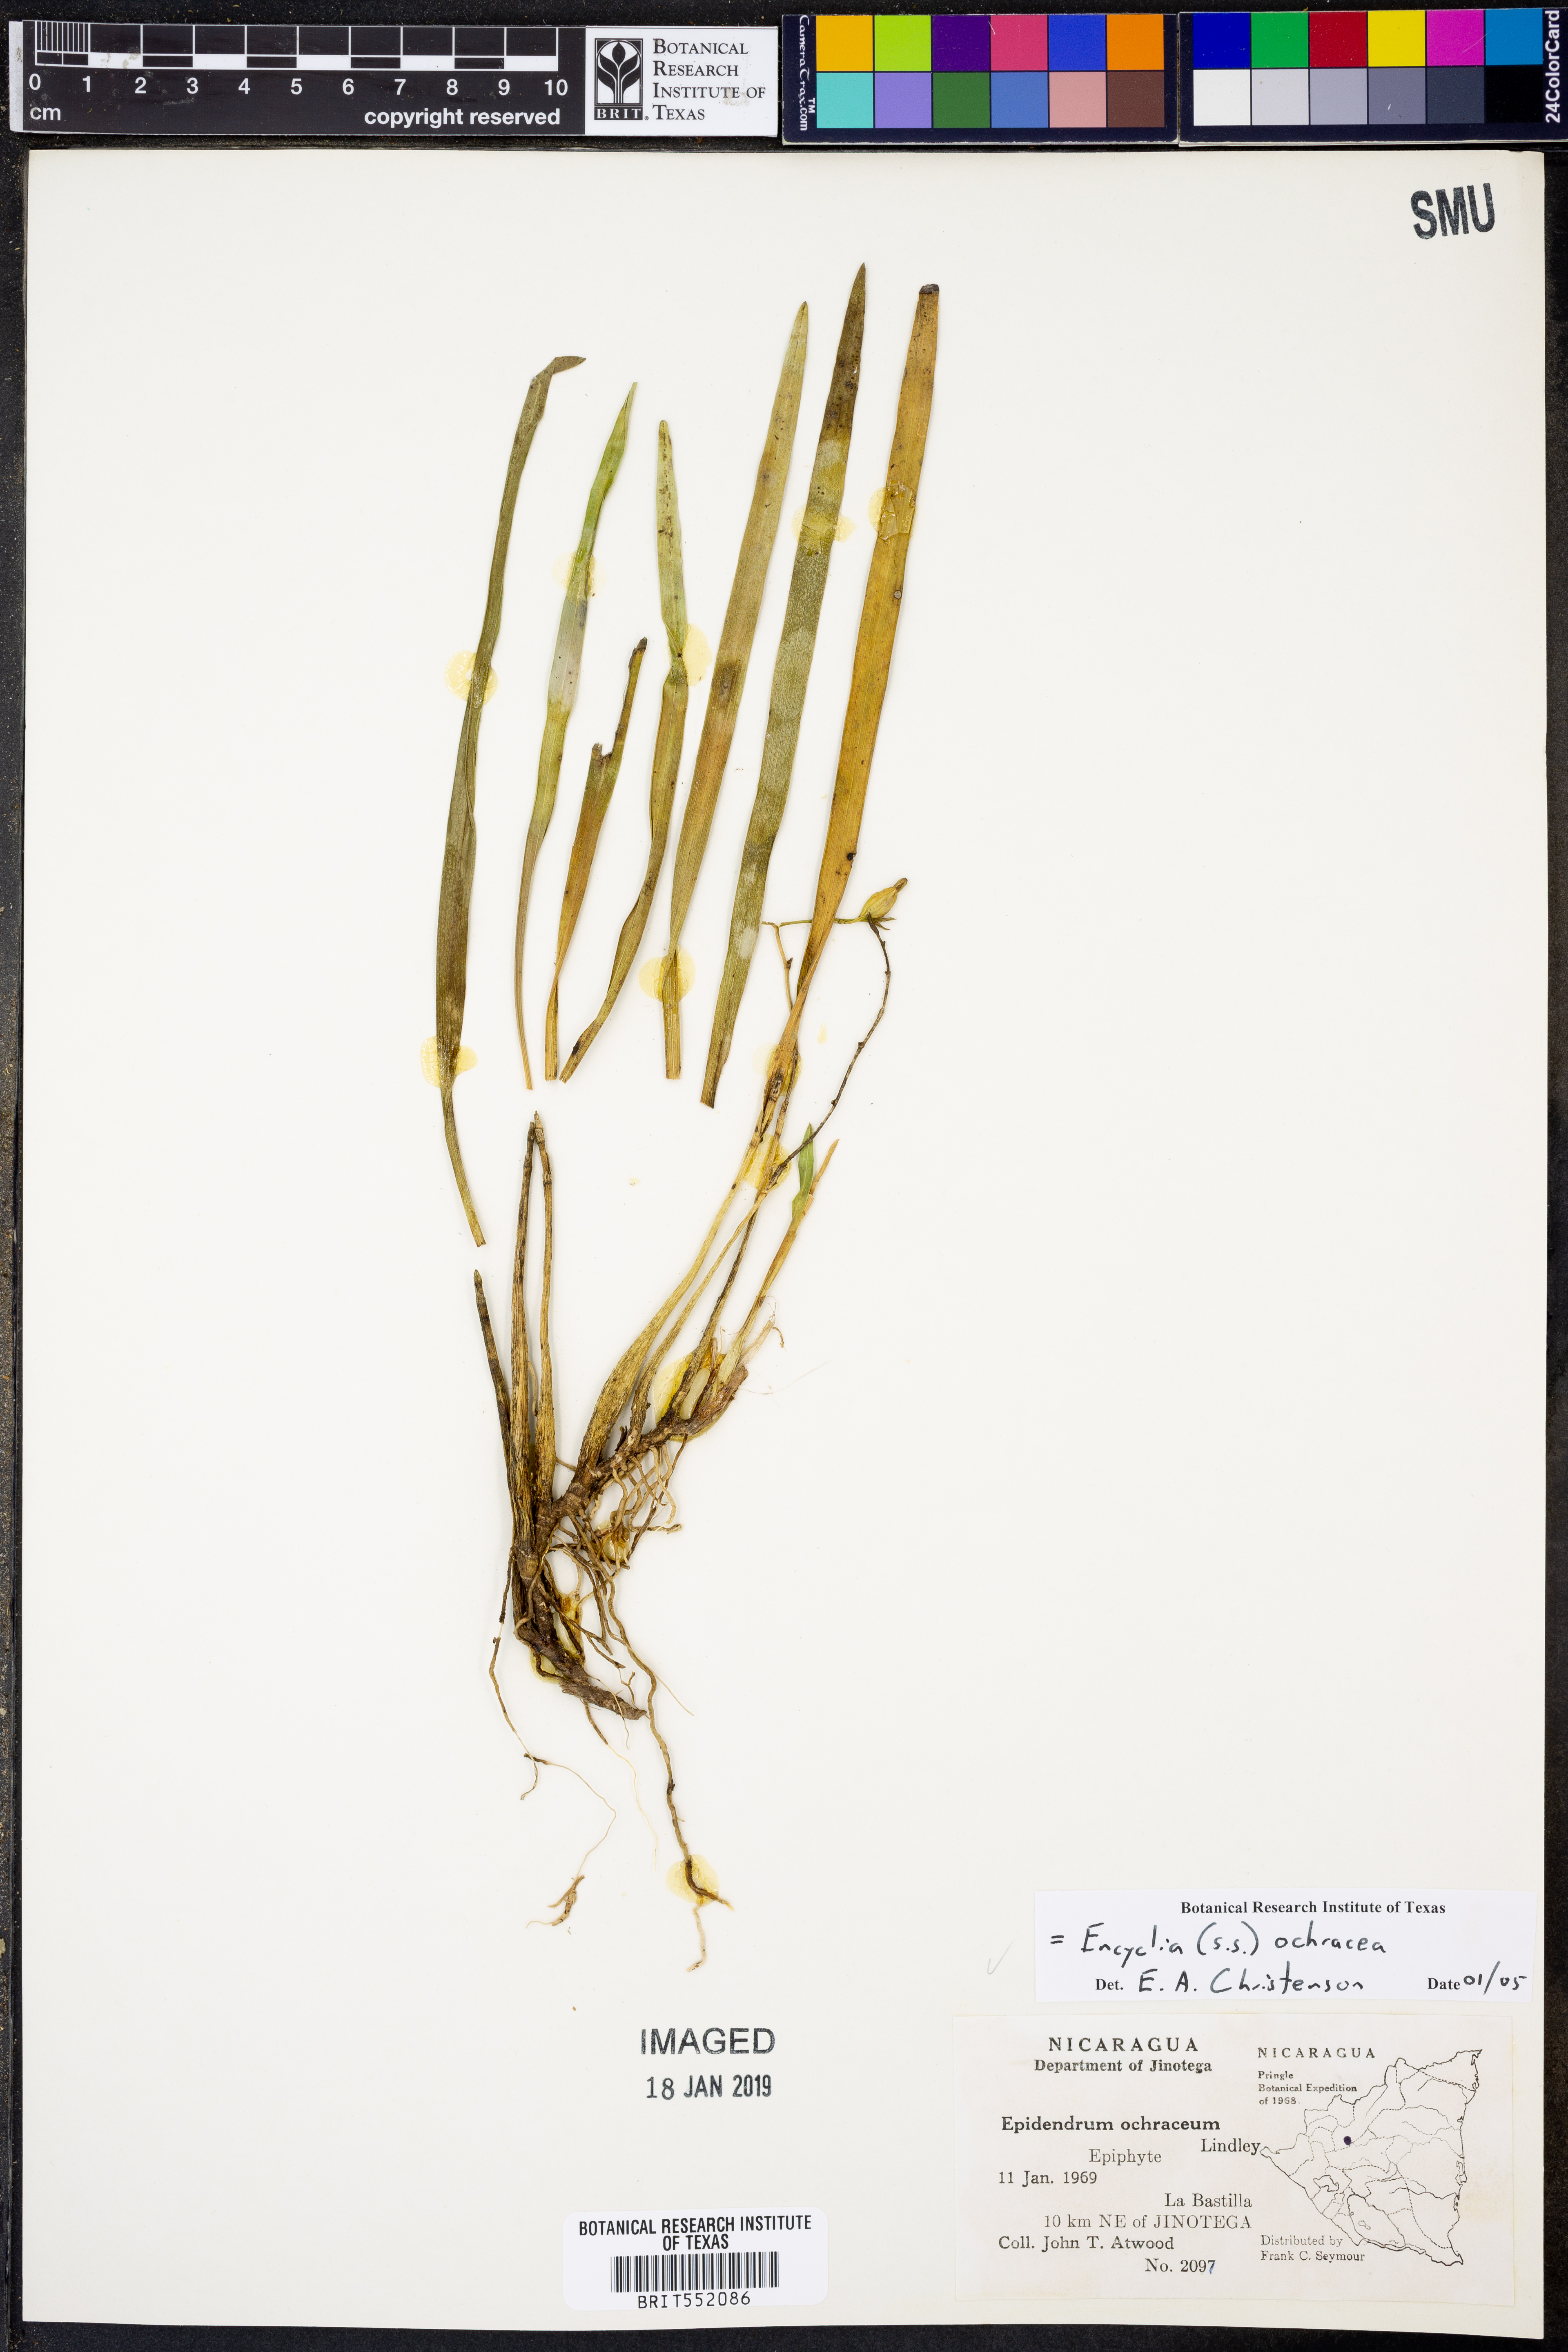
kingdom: Plantae
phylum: Tracheophyta
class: Liliopsida
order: Asparagales
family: Orchidaceae
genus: Prosthechea
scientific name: Prosthechea ochracea
